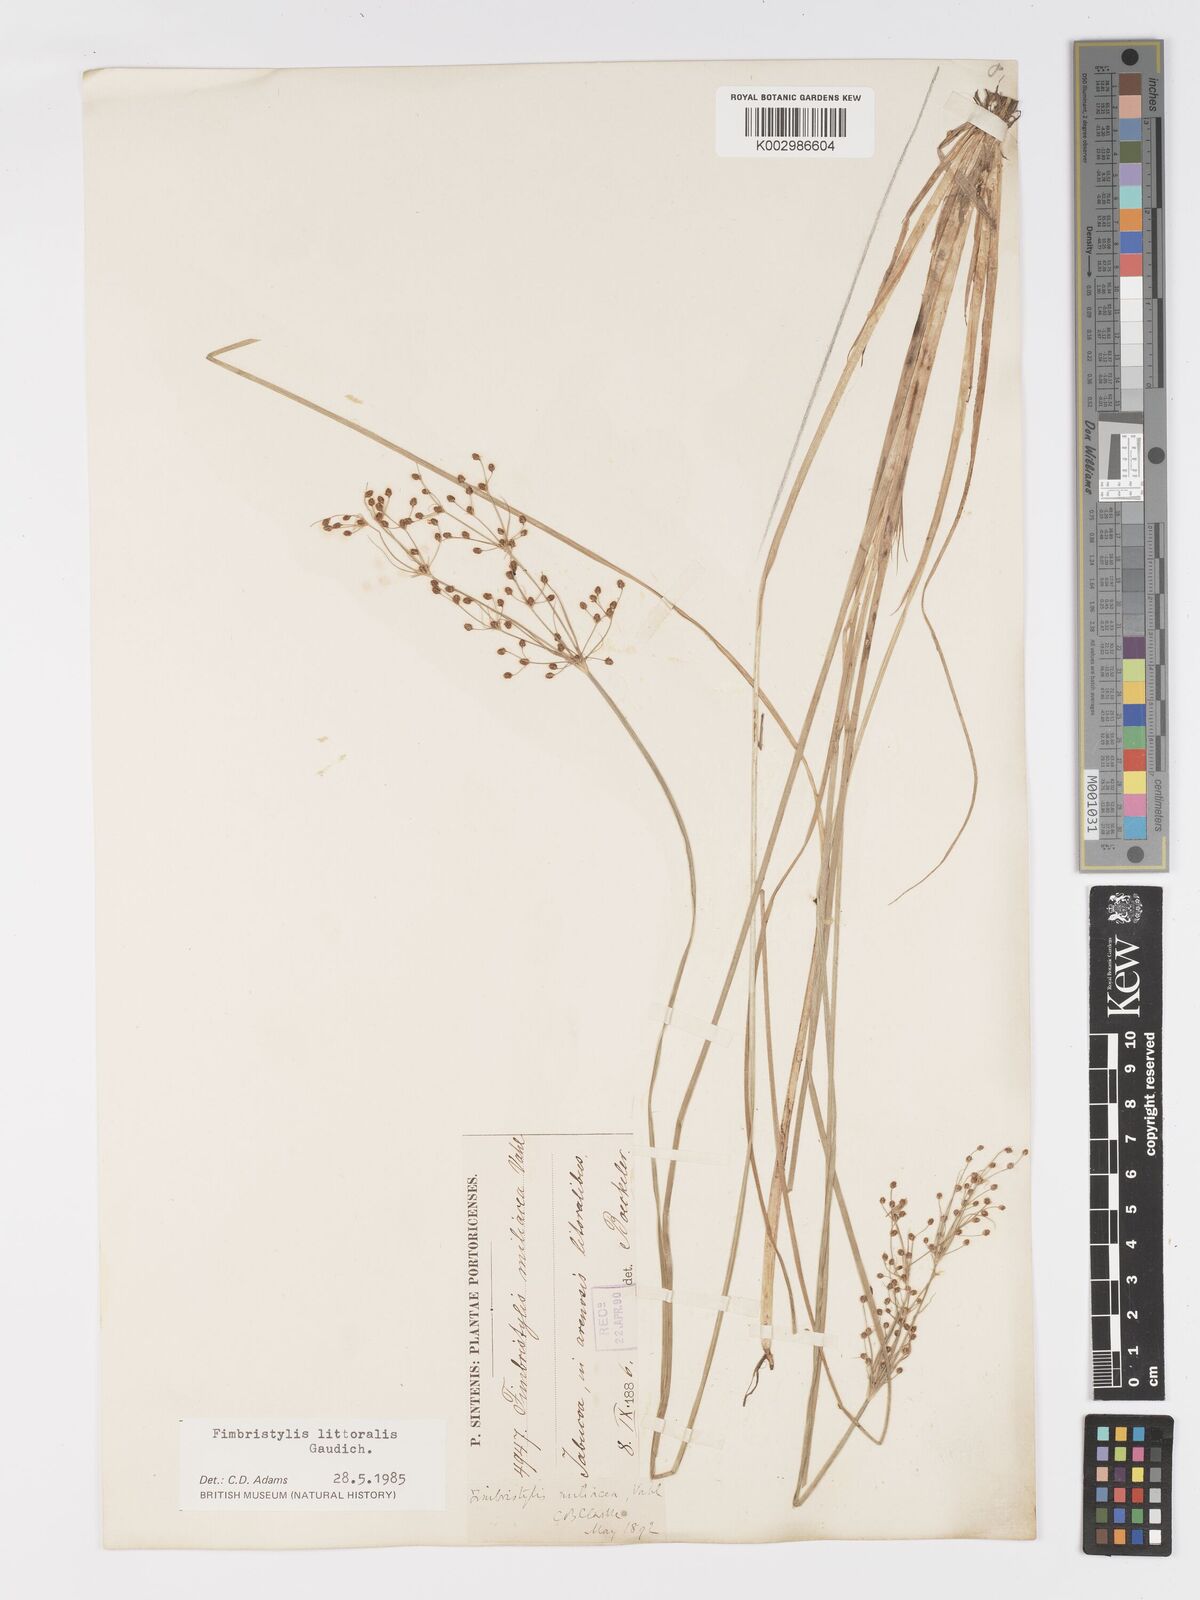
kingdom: Plantae
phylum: Tracheophyta
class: Liliopsida
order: Poales
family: Cyperaceae
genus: Fimbristylis
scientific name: Fimbristylis littoralis
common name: Fimbry
